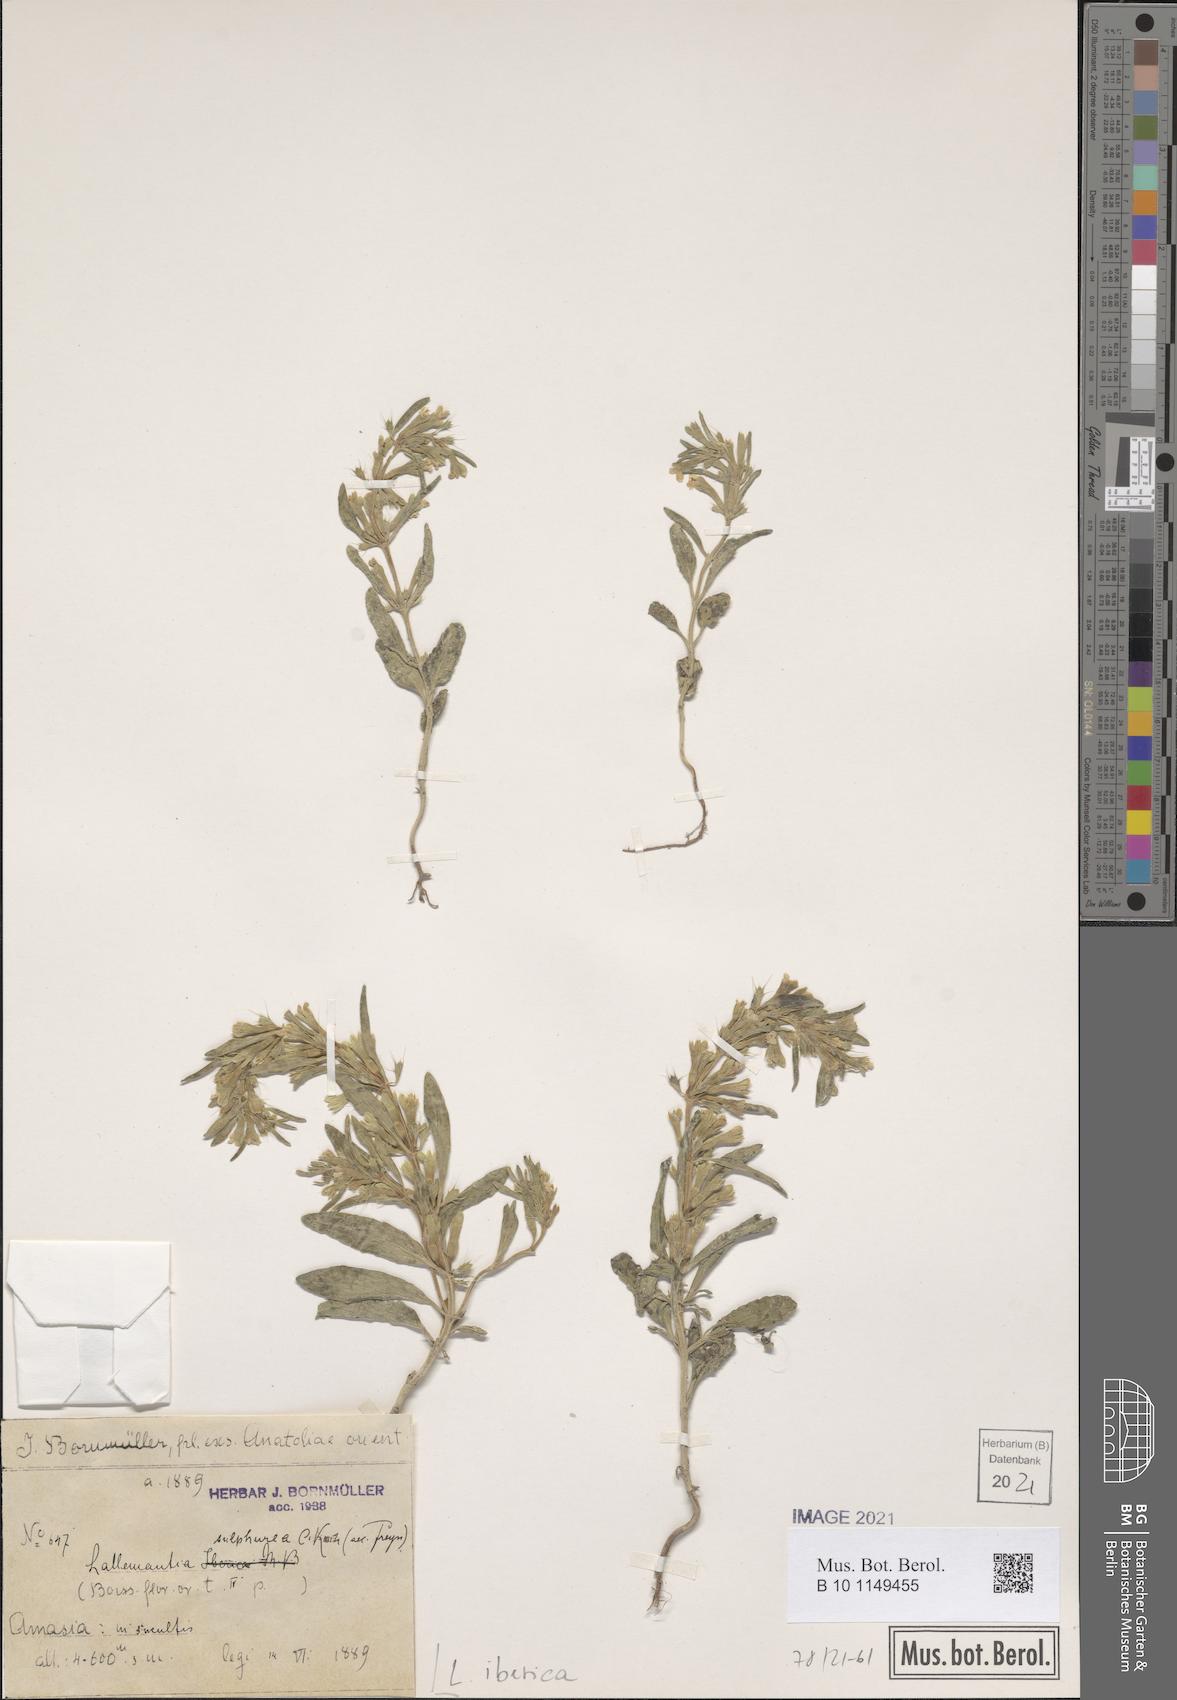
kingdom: Plantae
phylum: Tracheophyta
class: Magnoliopsida
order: Lamiales
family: Lamiaceae
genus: Lallemantia
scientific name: Lallemantia iberica
